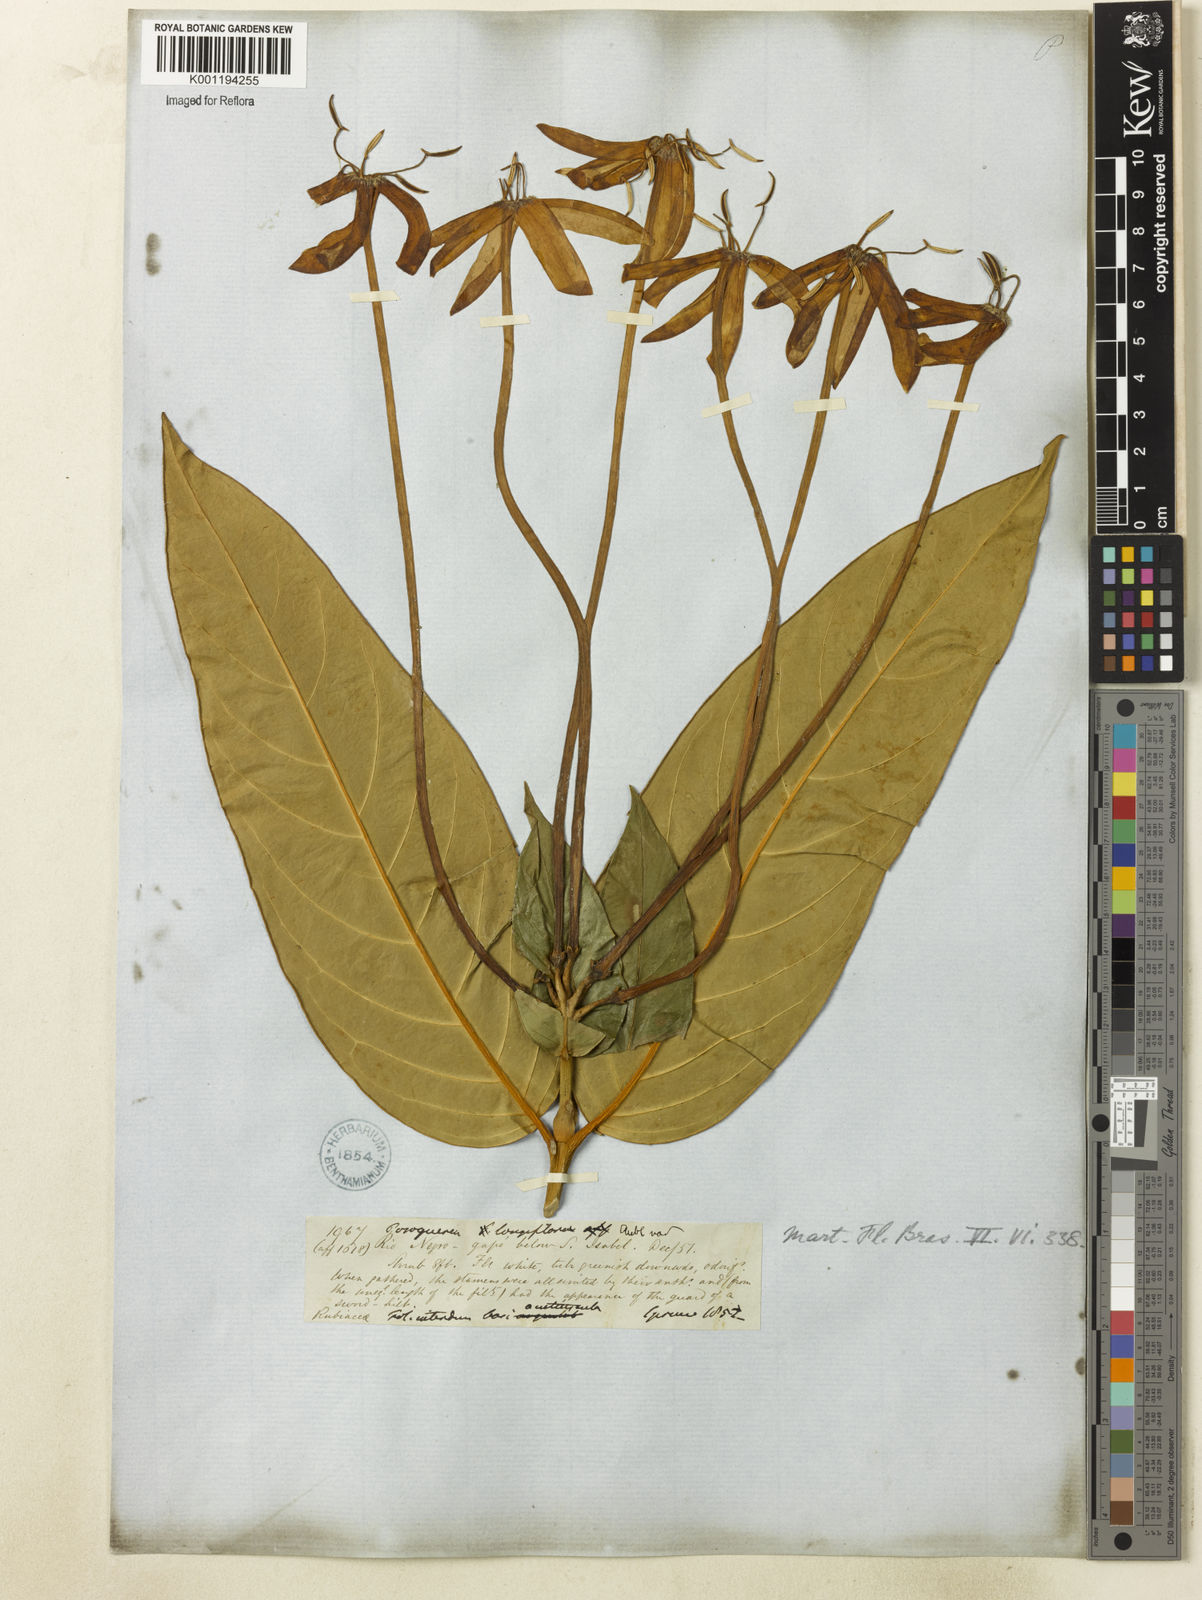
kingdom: Plantae
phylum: Tracheophyta
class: Magnoliopsida
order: Gentianales
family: Rubiaceae
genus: Posoqueria
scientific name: Posoqueria longiflora
